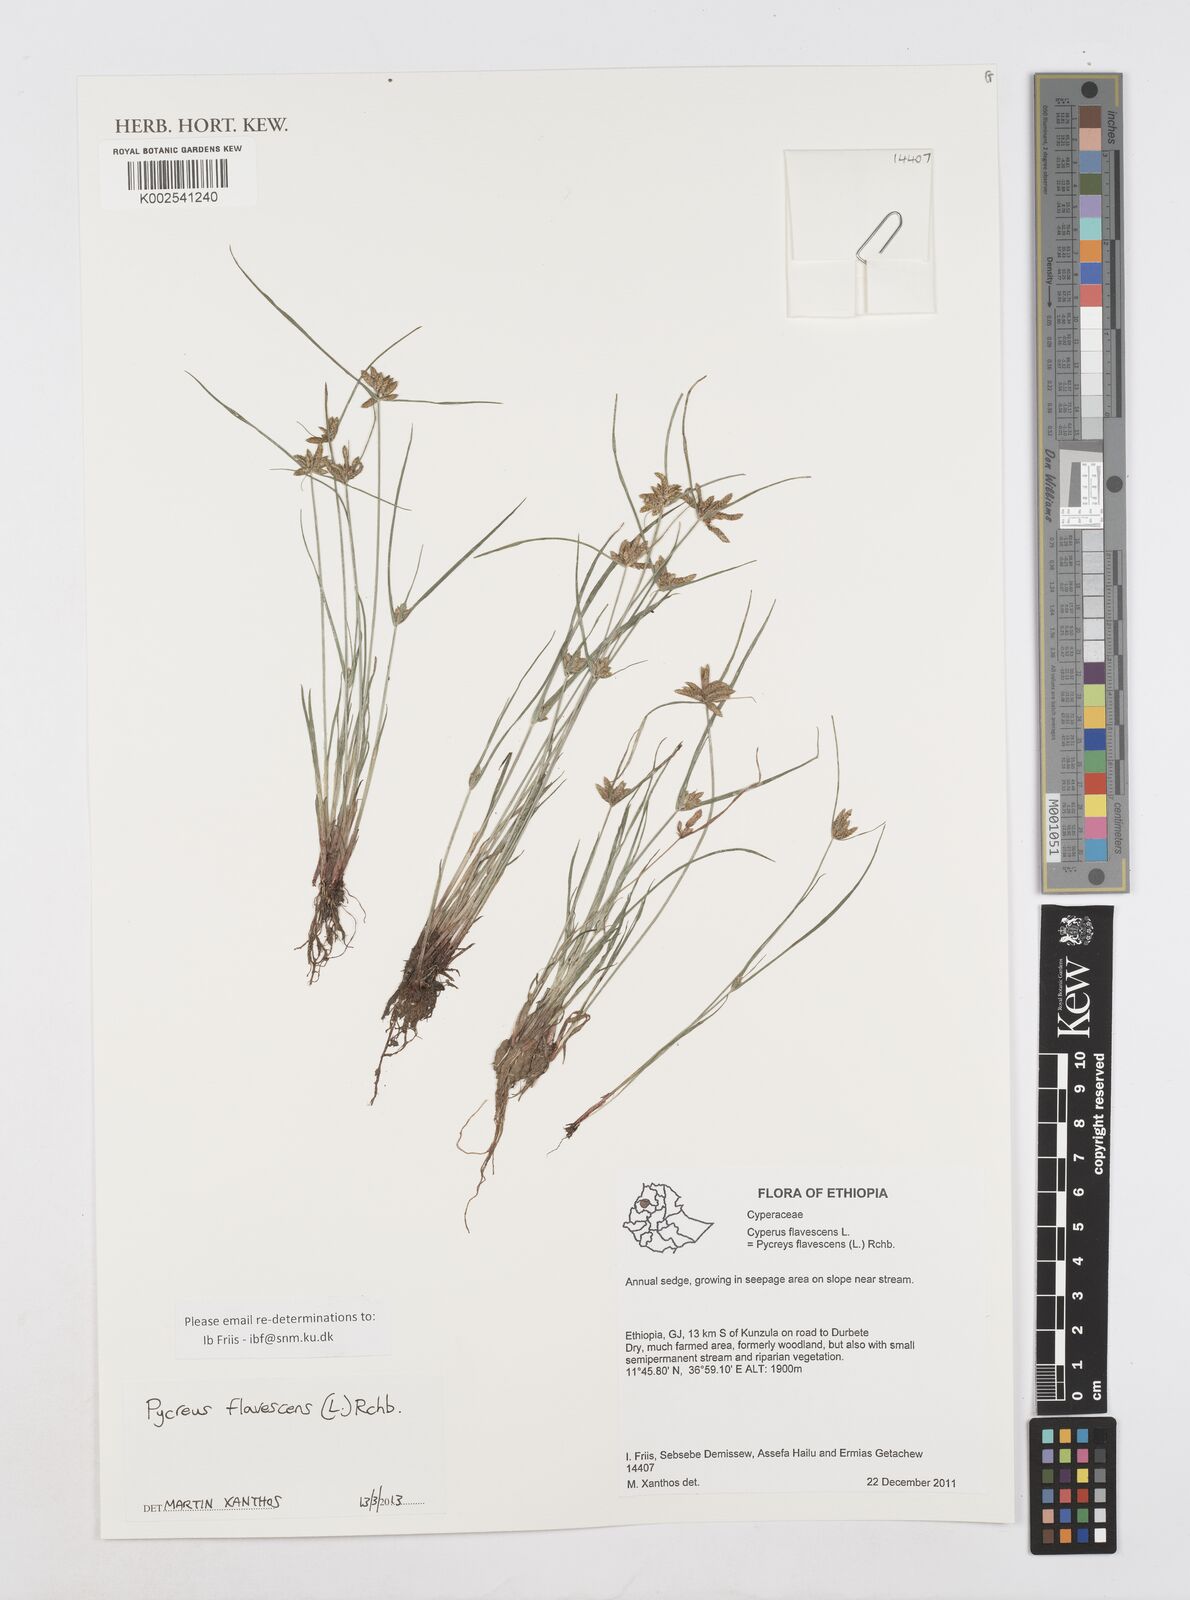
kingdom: Plantae
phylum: Tracheophyta
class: Liliopsida
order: Poales
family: Cyperaceae
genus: Cyperus
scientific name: Cyperus flavescens
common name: Yellow galingale
